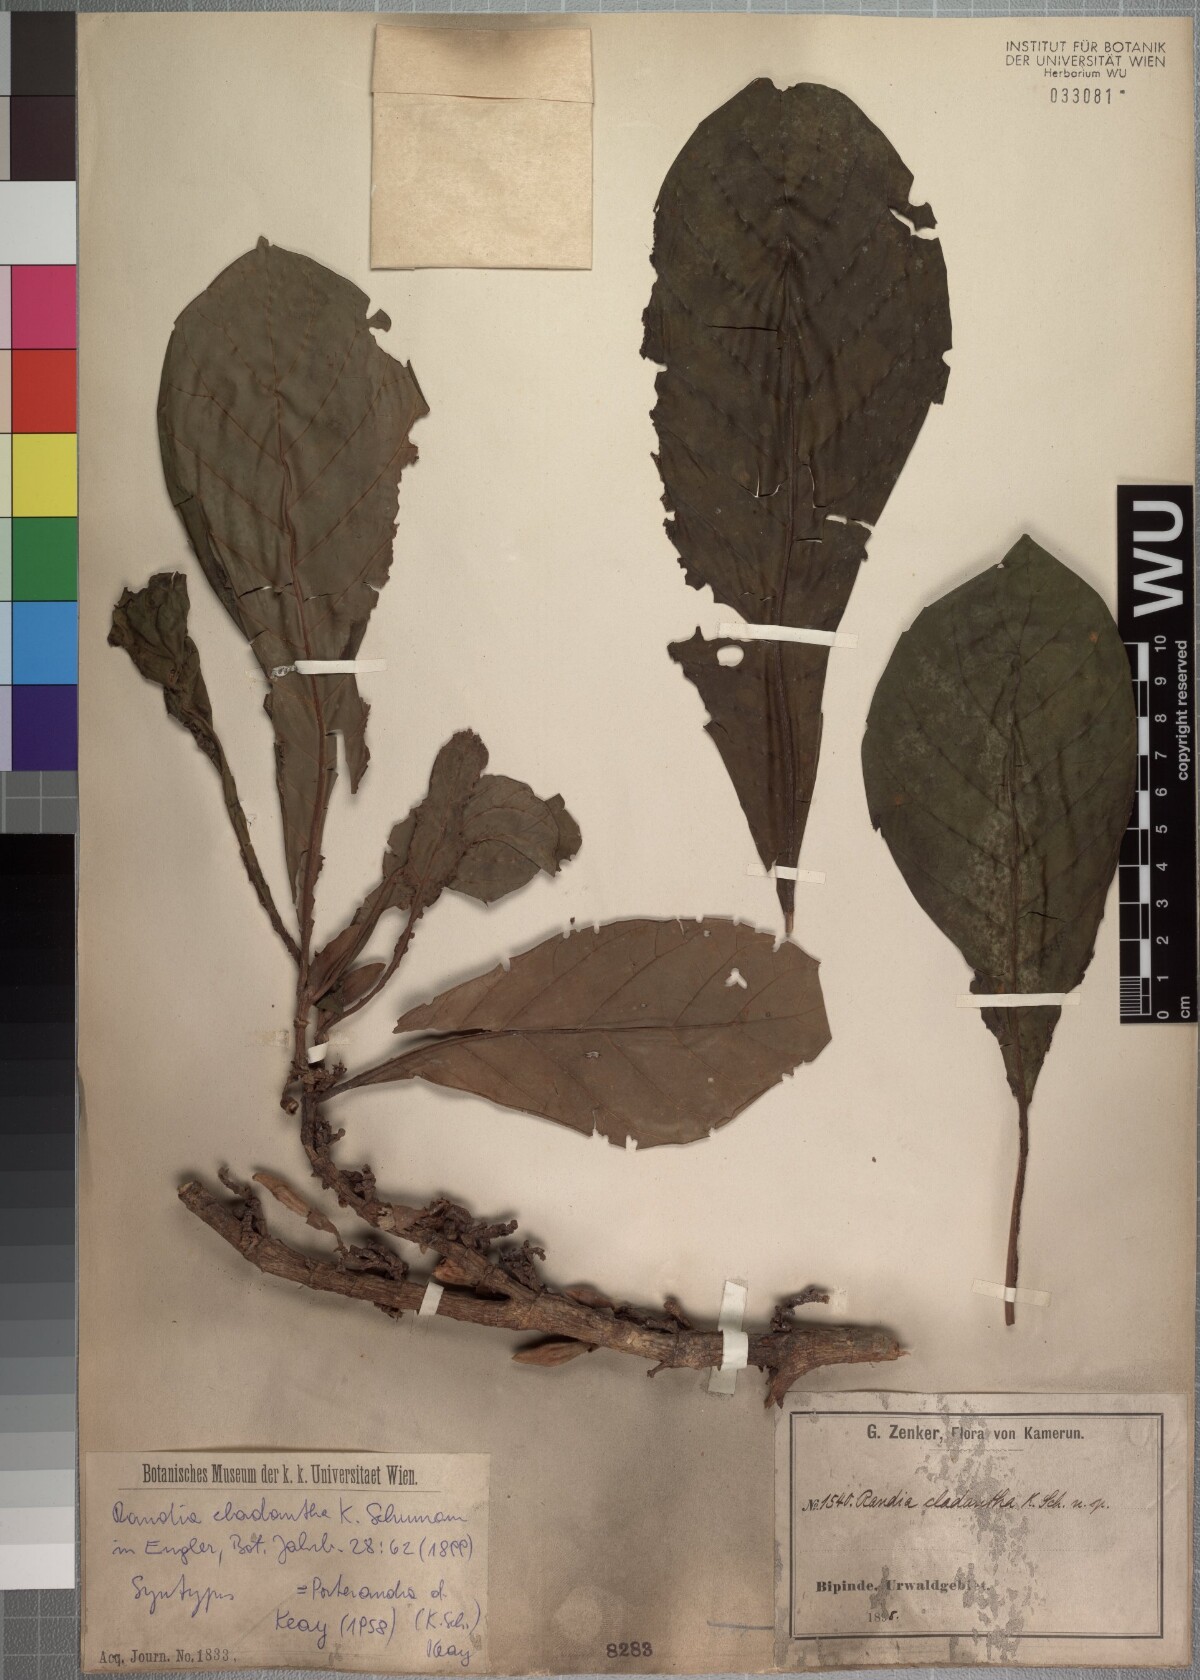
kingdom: Plantae
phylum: Tracheophyta
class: Magnoliopsida
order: Gentianales
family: Rubiaceae
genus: Aoranthe
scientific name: Aoranthe cladantha
